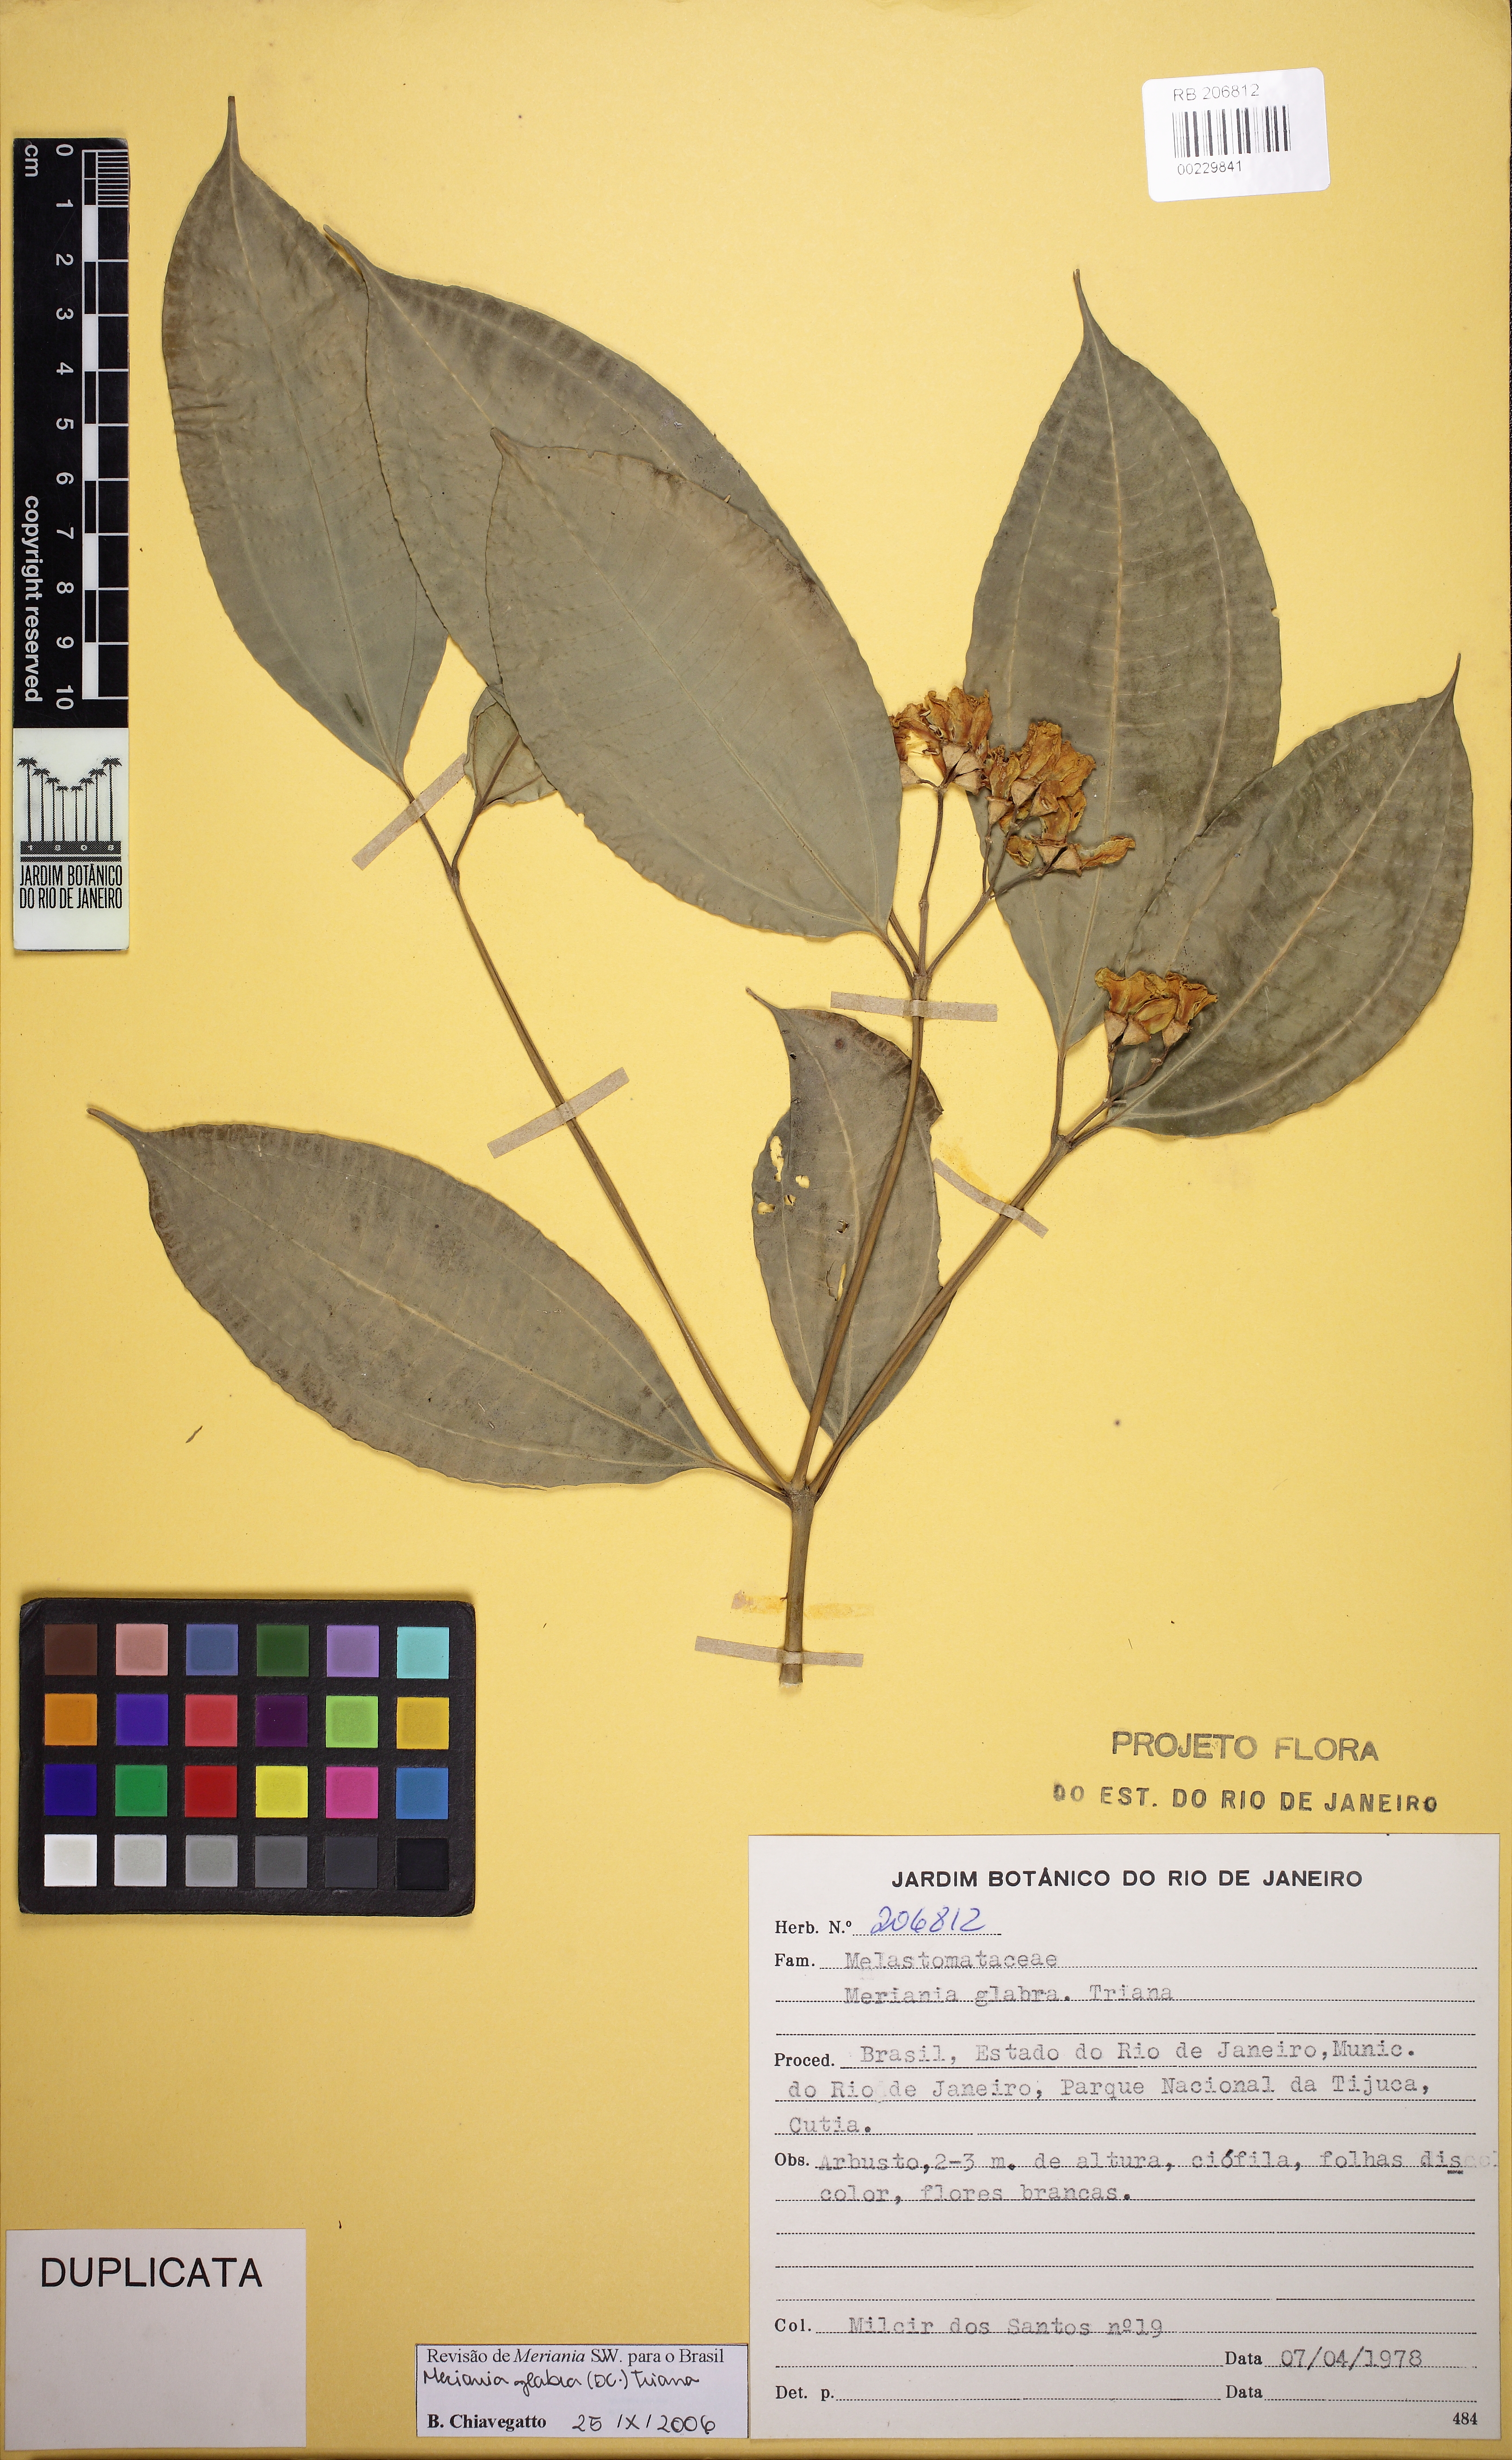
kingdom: Plantae
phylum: Tracheophyta
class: Magnoliopsida
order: Myrtales
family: Melastomataceae
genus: Meriania
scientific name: Meriania glabra
